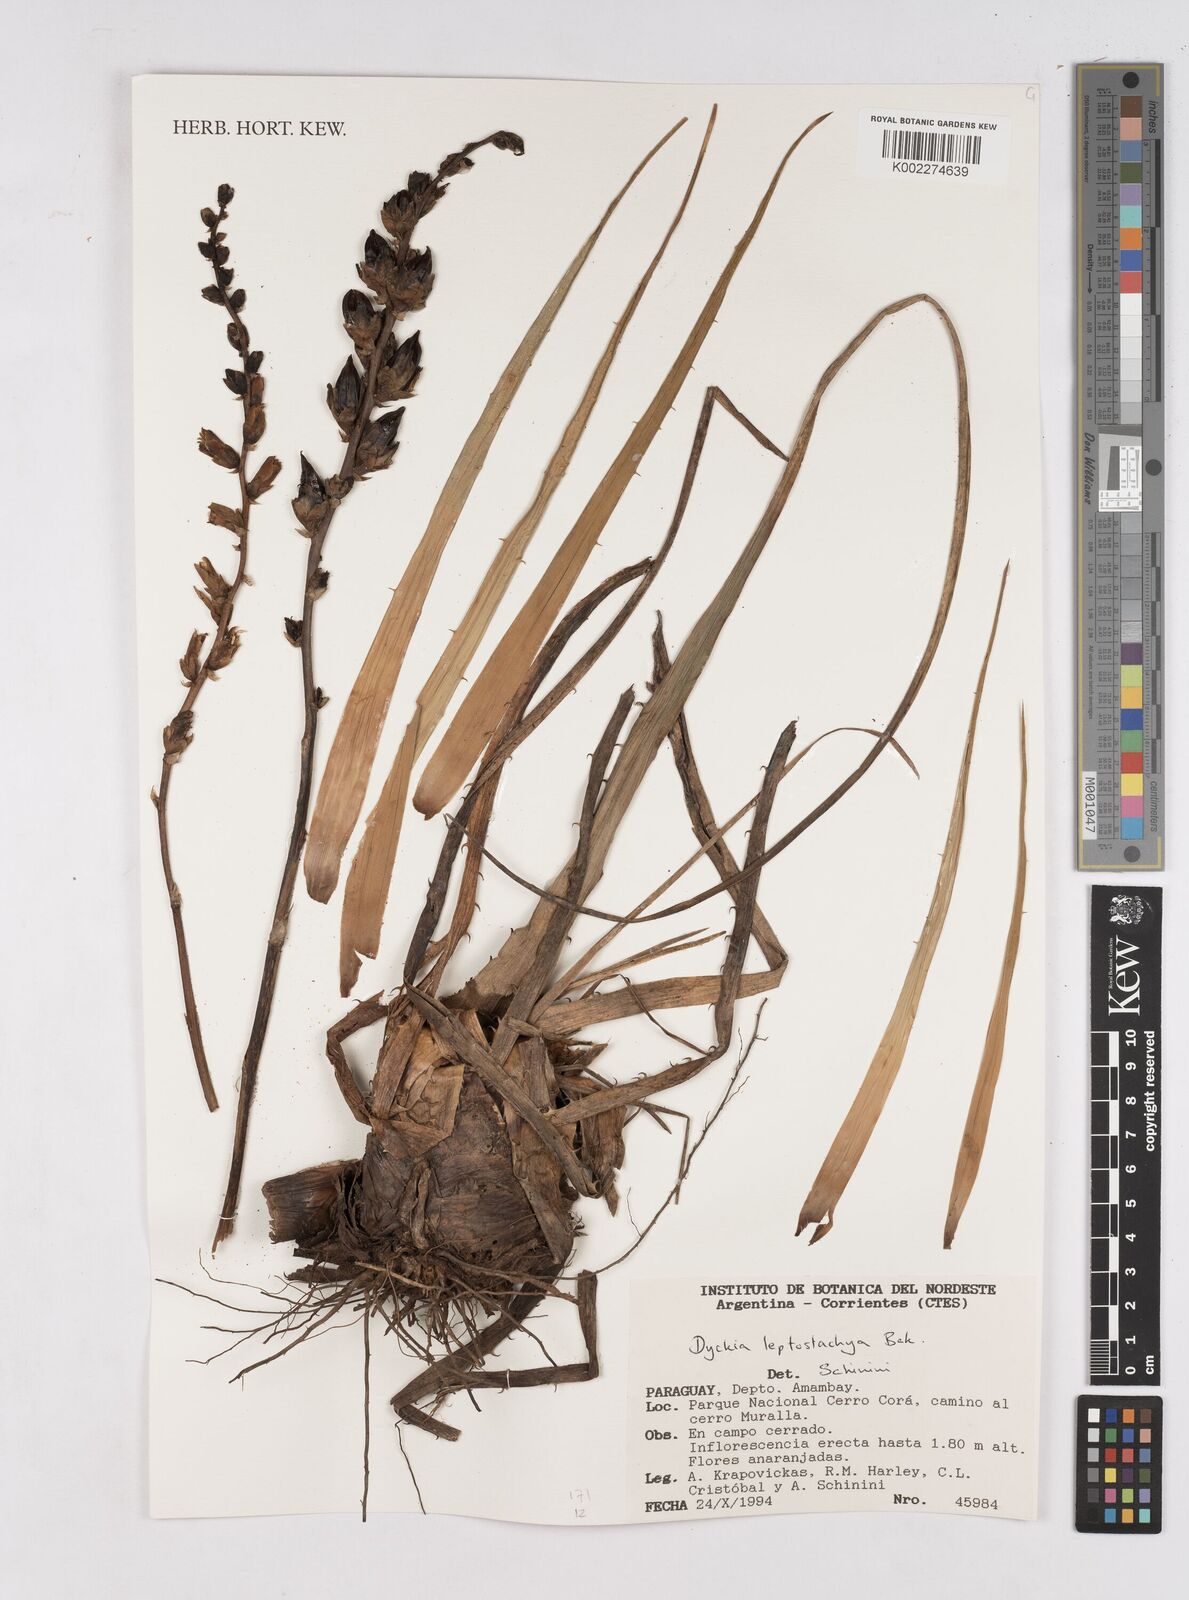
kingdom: Plantae
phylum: Tracheophyta
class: Liliopsida
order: Poales
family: Bromeliaceae
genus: Dyckia
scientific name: Dyckia leptostachya
